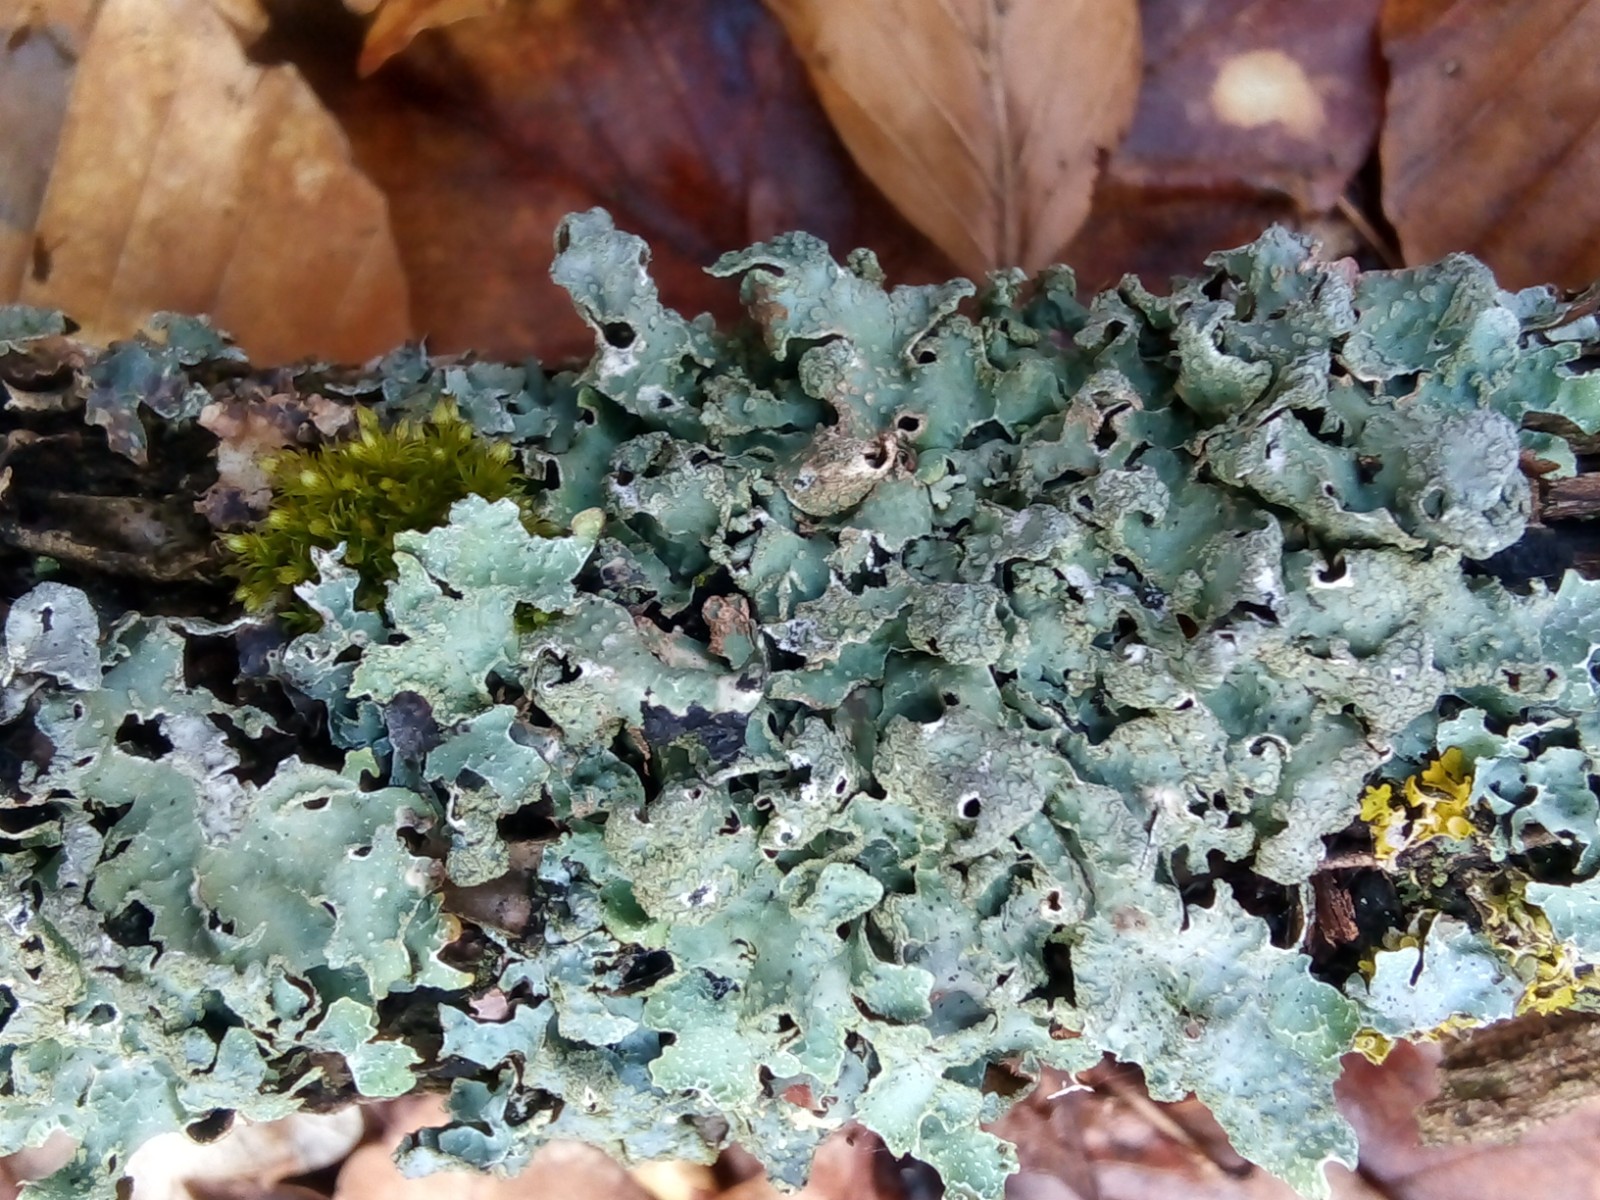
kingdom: Fungi
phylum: Ascomycota
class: Lecanoromycetes
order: Lecanorales
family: Parmeliaceae
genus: Parmelia
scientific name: Parmelia sulcata
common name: rynket skållav
